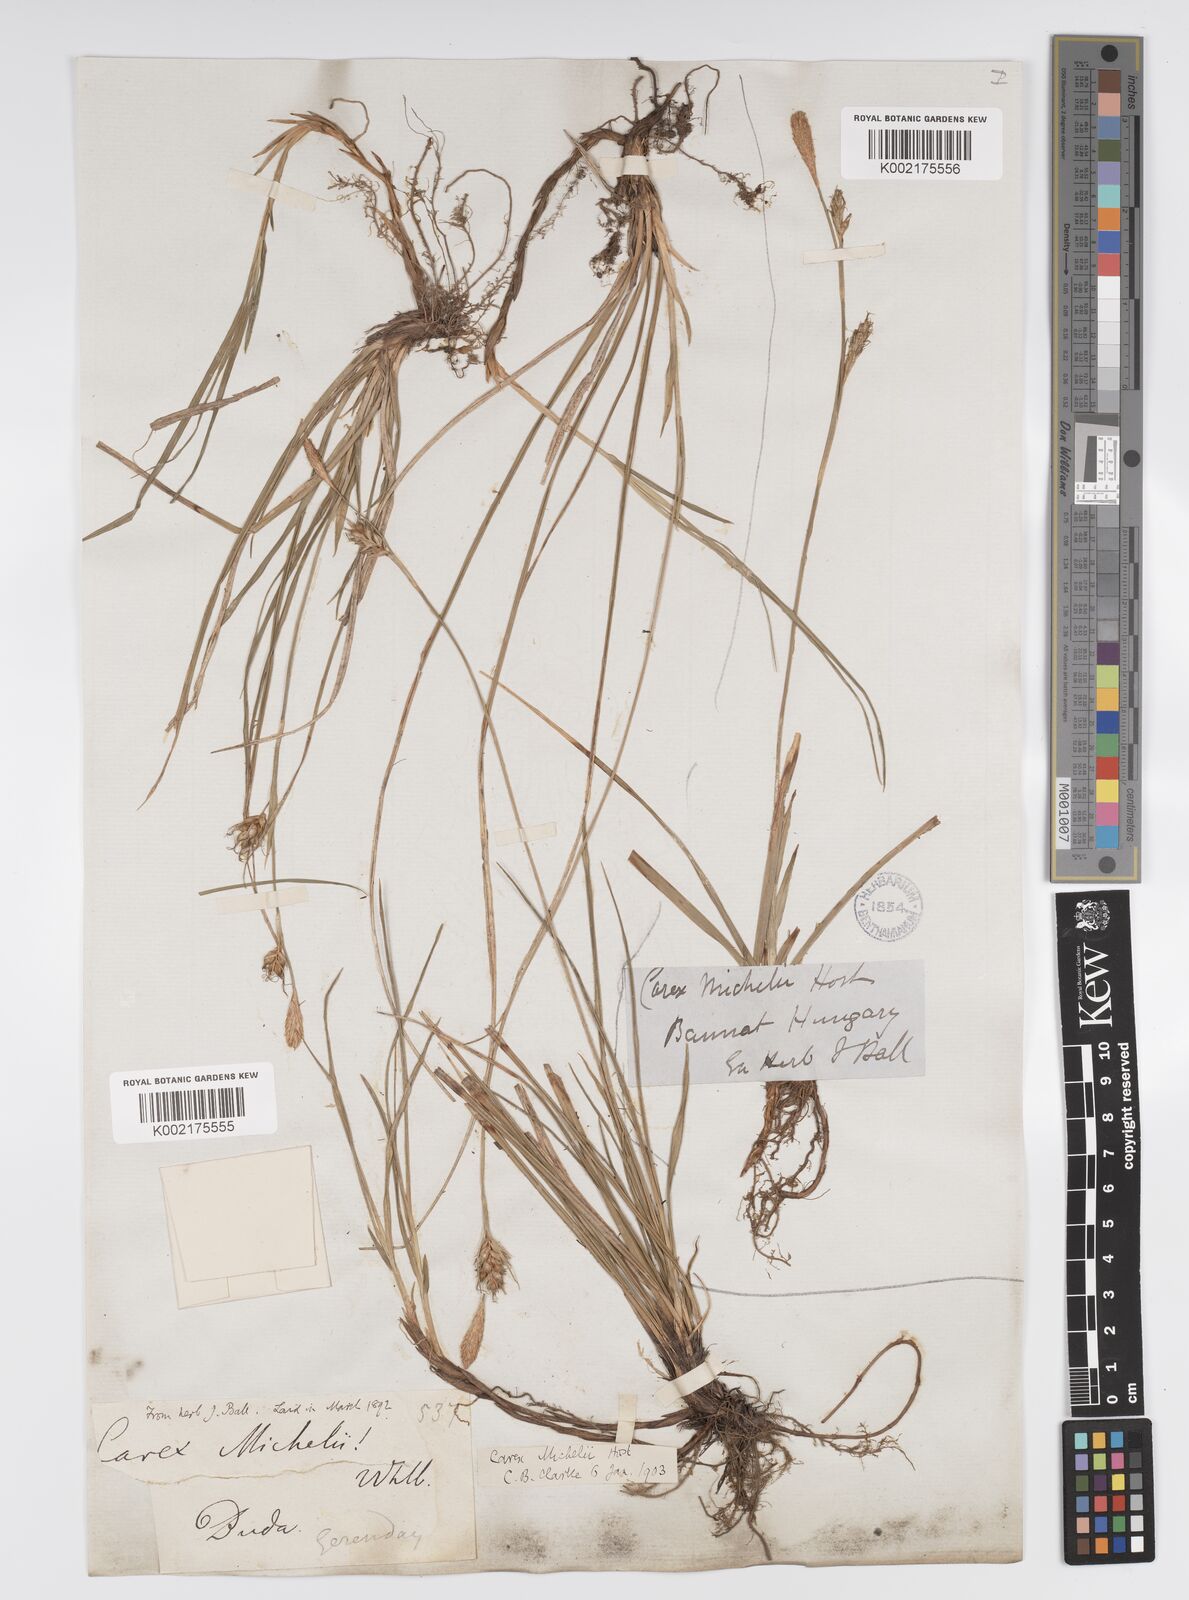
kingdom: Plantae
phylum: Tracheophyta
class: Liliopsida
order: Poales
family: Cyperaceae
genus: Carex
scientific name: Carex michelii
